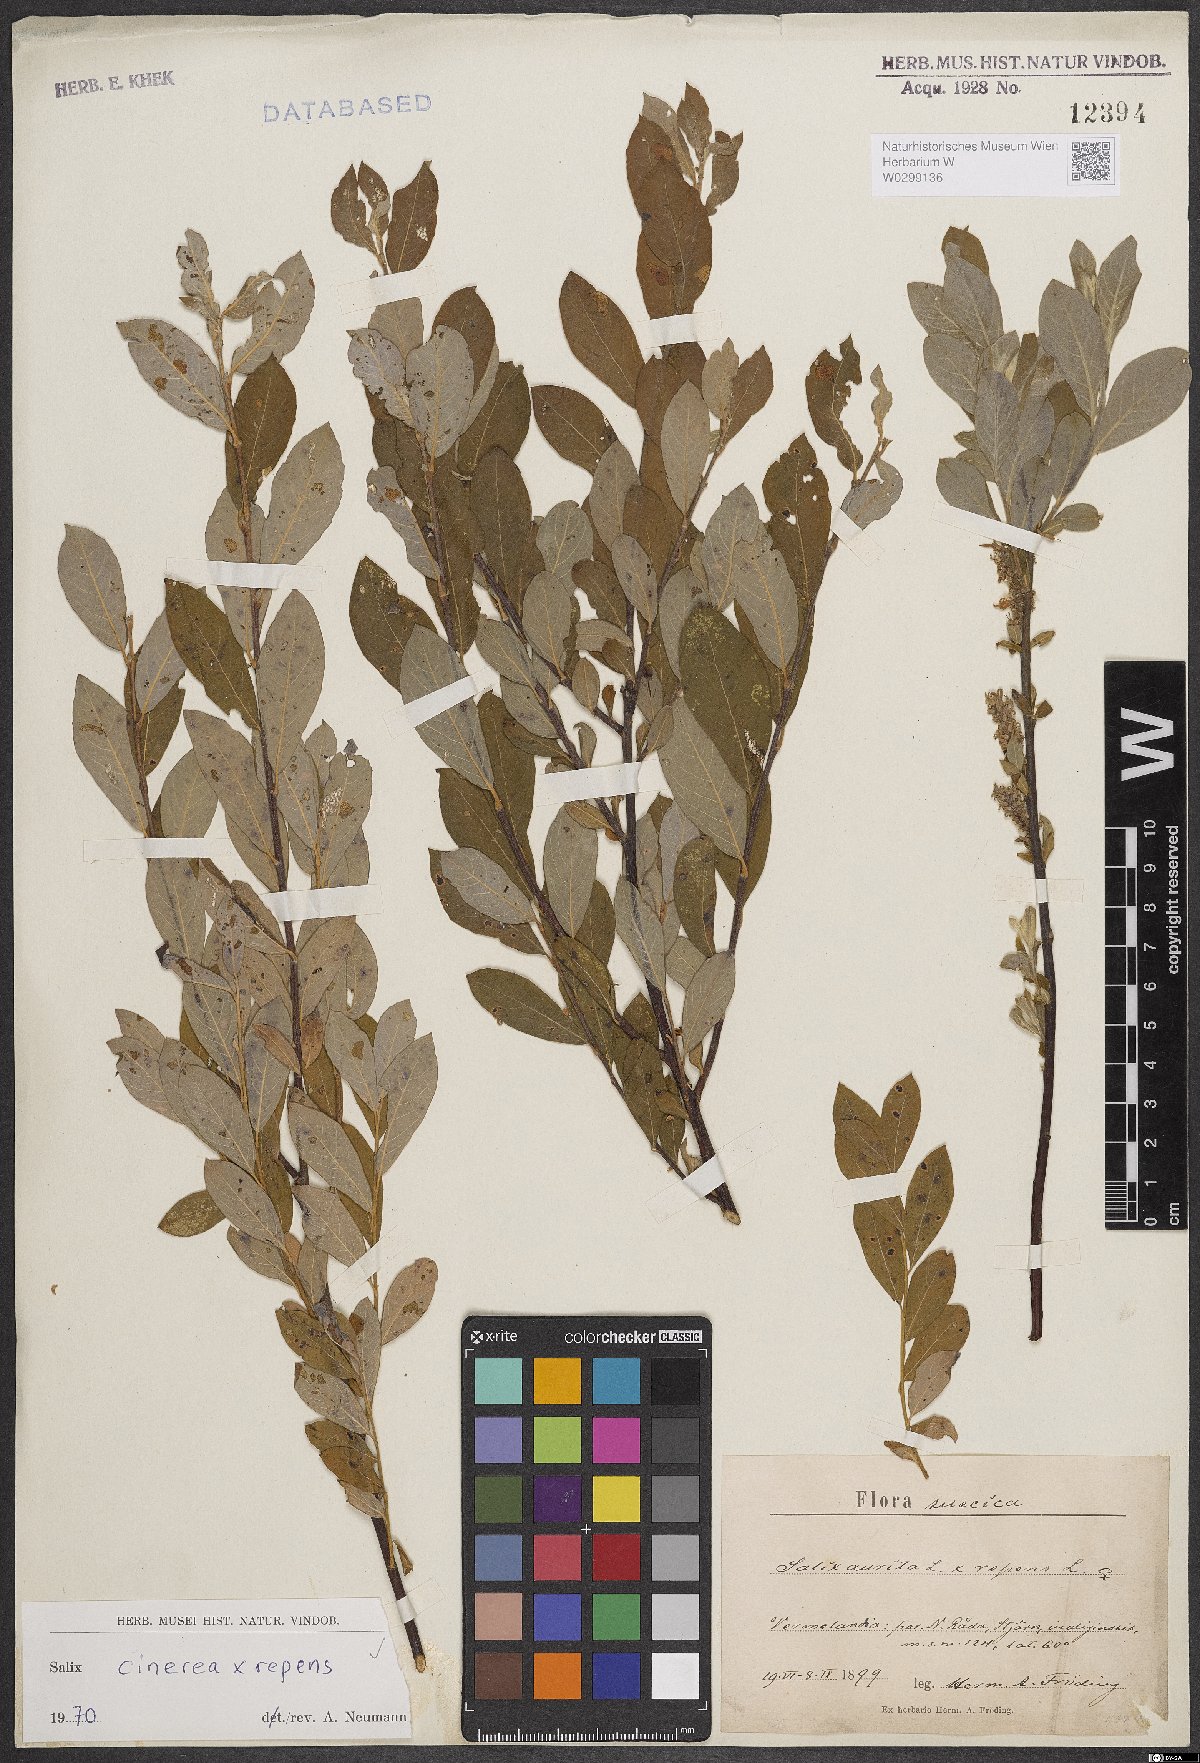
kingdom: Plantae
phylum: Tracheophyta
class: Magnoliopsida
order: Malpighiales
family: Salicaceae
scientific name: Salicaceae
